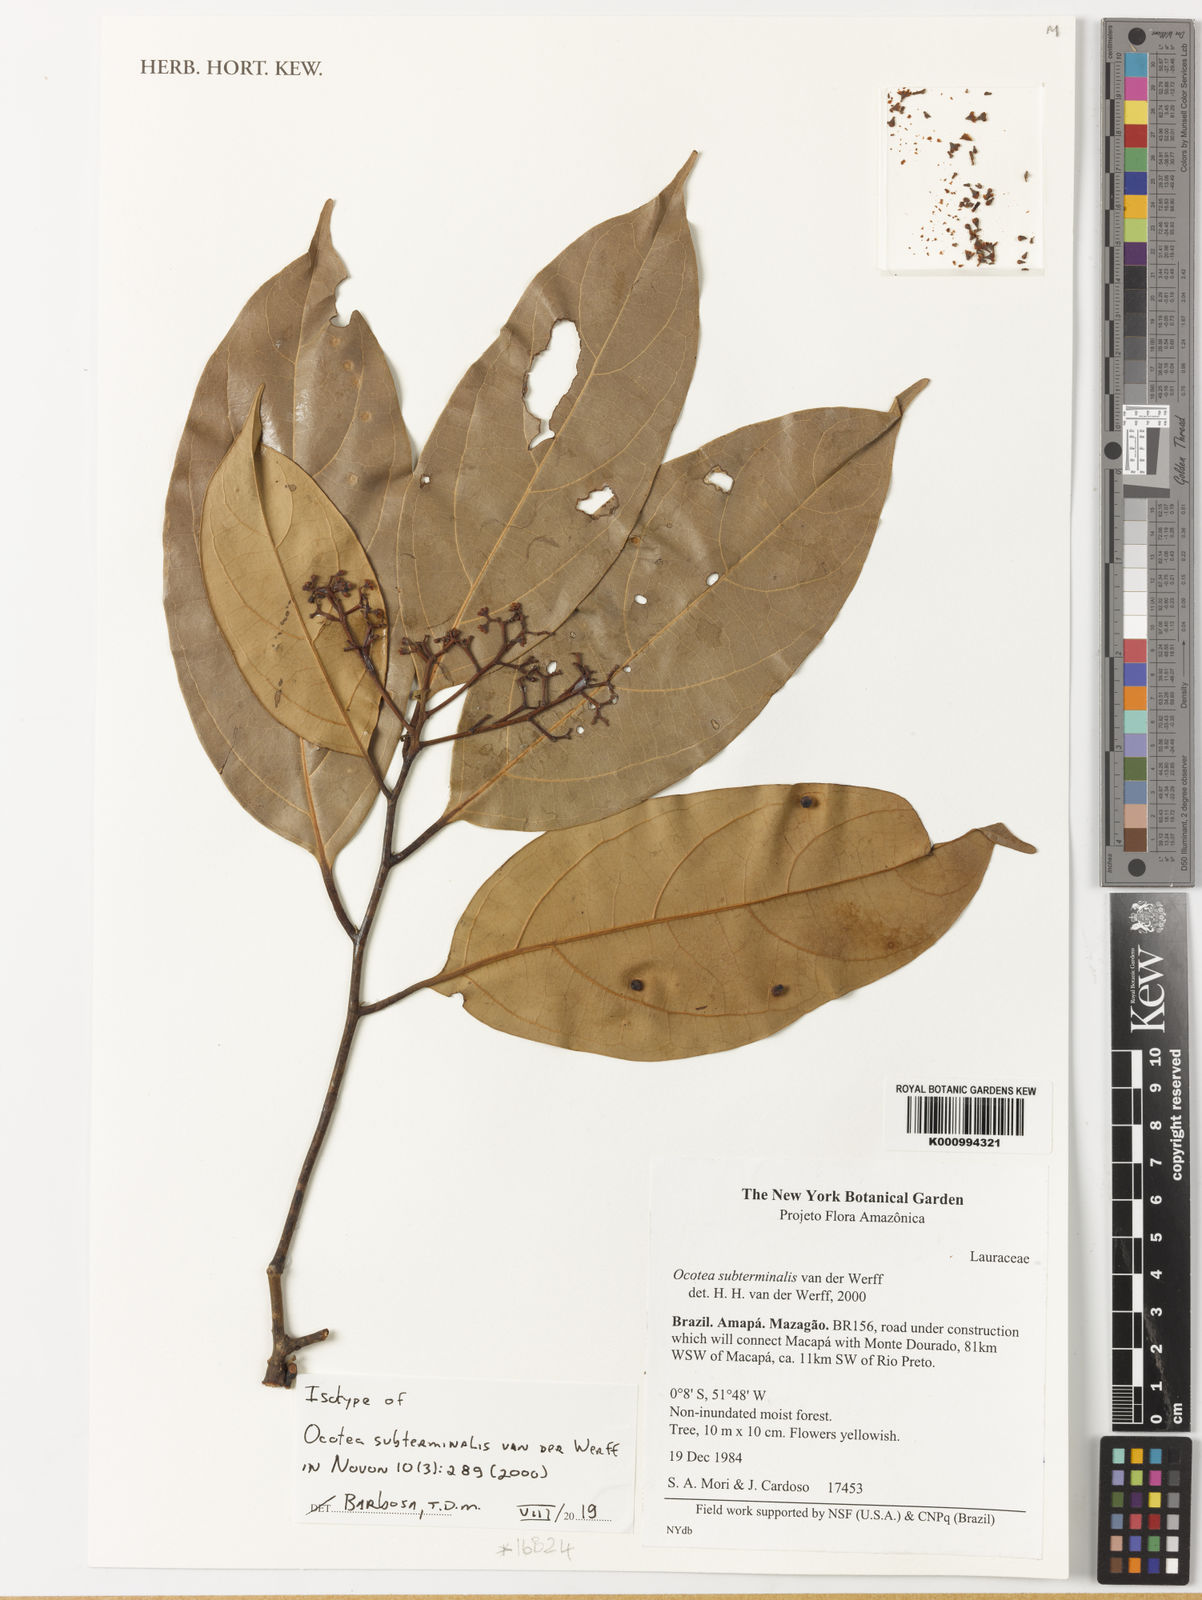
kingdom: Plantae
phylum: Tracheophyta
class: Magnoliopsida
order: Laurales
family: Lauraceae
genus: Ocotea
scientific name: Ocotea subterminalis
